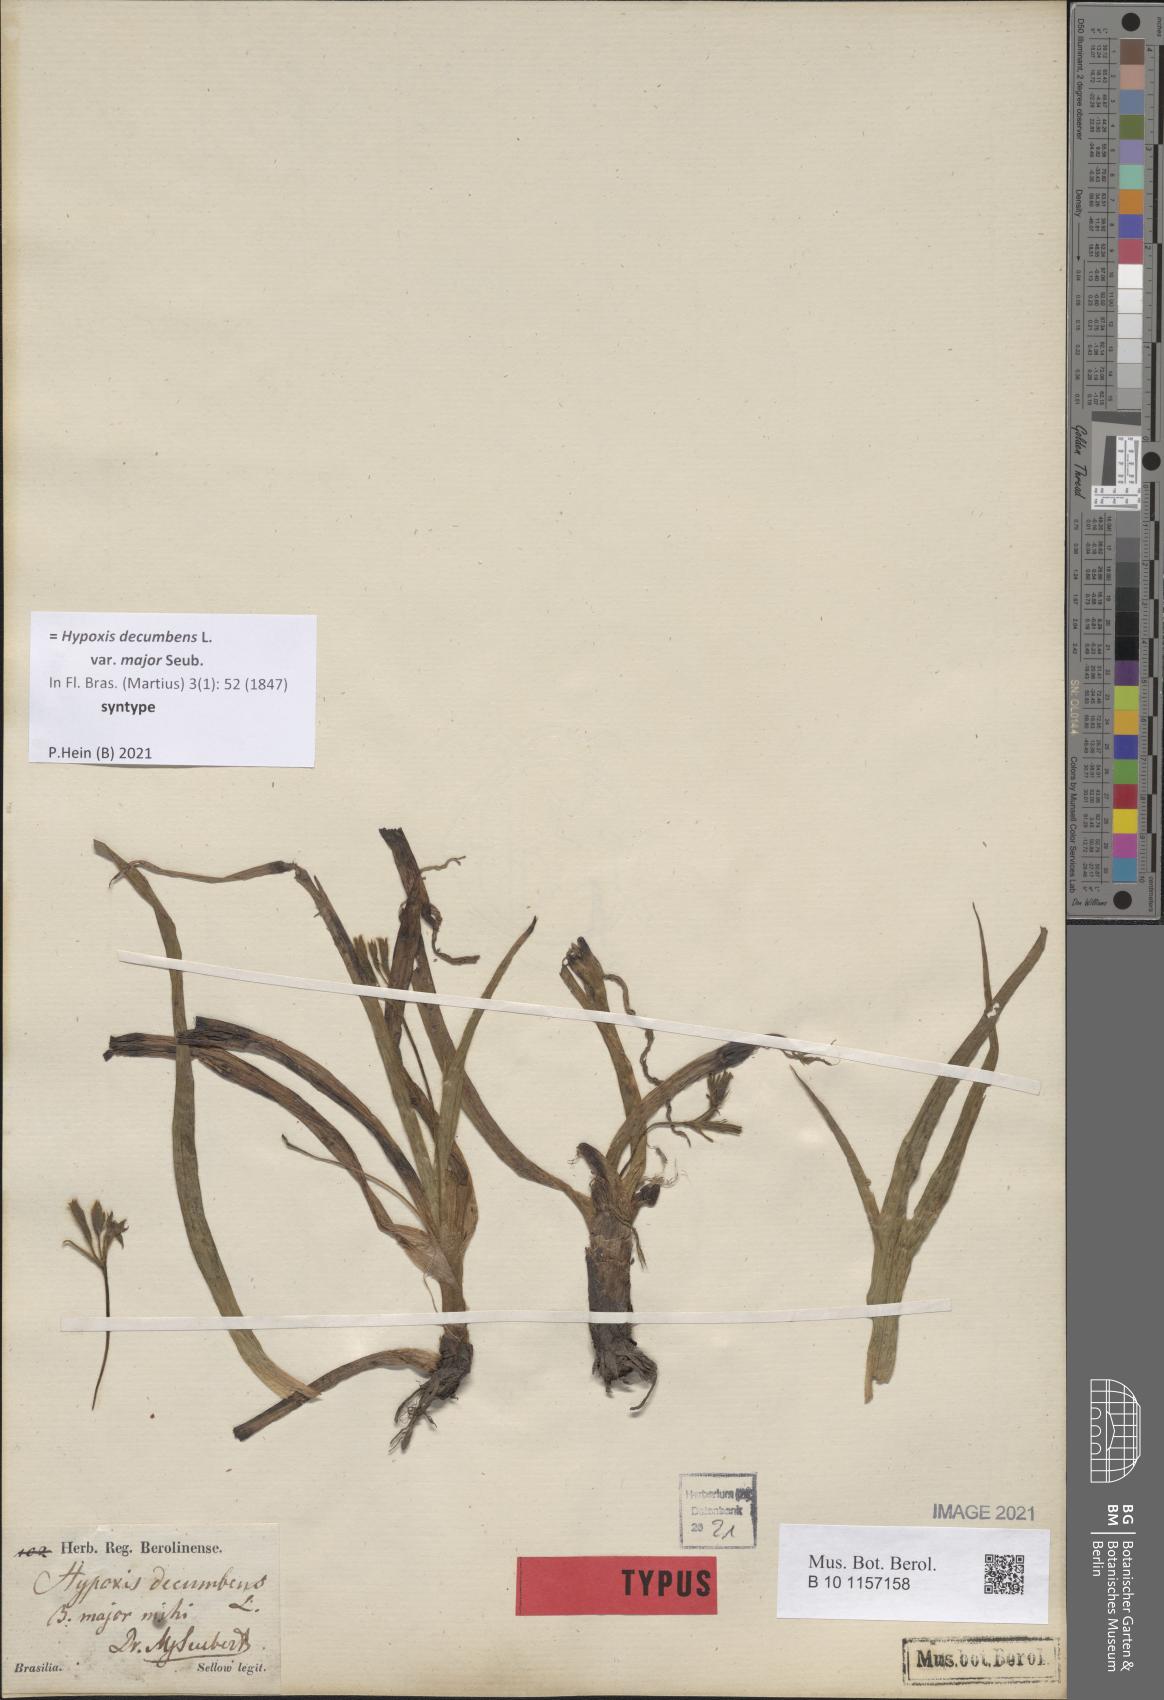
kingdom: Plantae
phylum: Tracheophyta
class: Liliopsida
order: Asparagales
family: Hypoxidaceae
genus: Hypoxis
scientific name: Hypoxis decumbens
